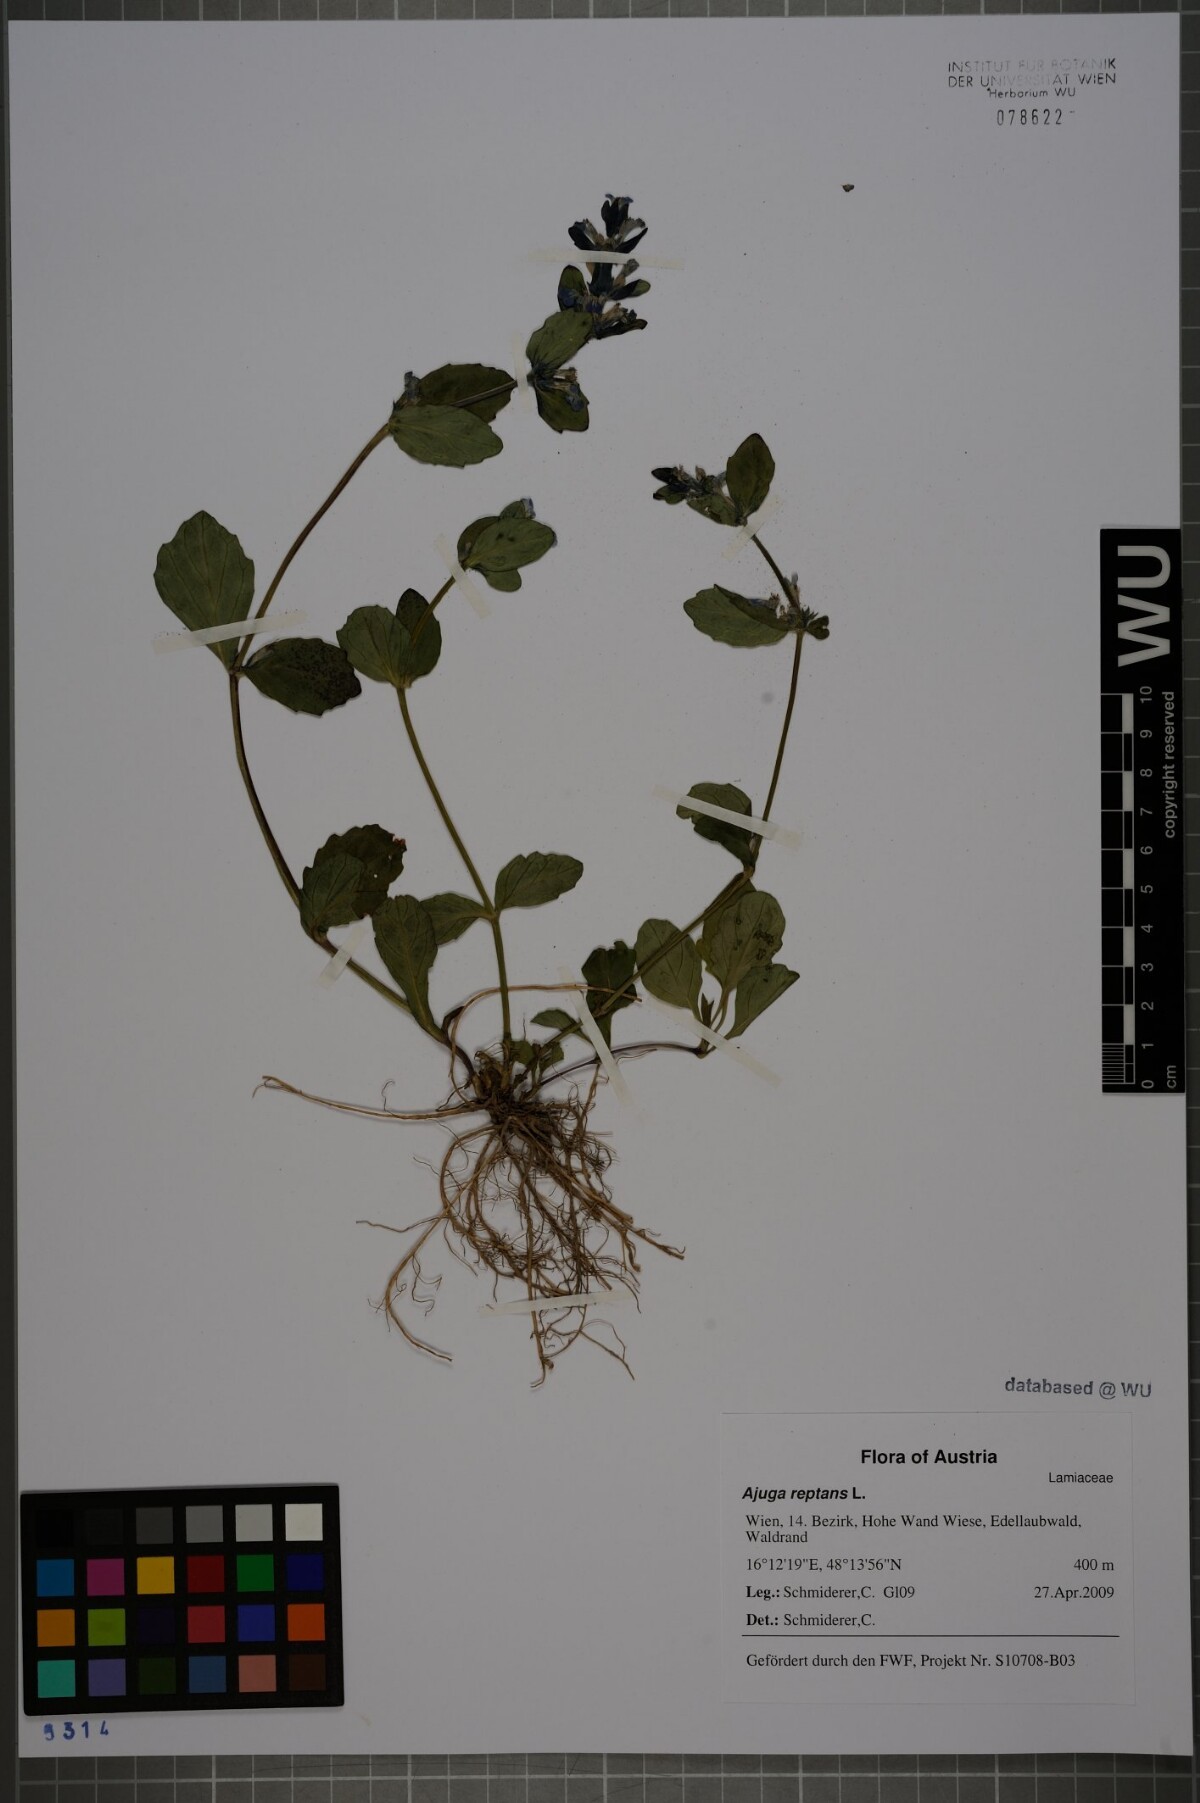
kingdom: Plantae
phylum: Tracheophyta
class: Magnoliopsida
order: Lamiales
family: Lamiaceae
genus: Ajuga
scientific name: Ajuga reptans
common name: Bugle
